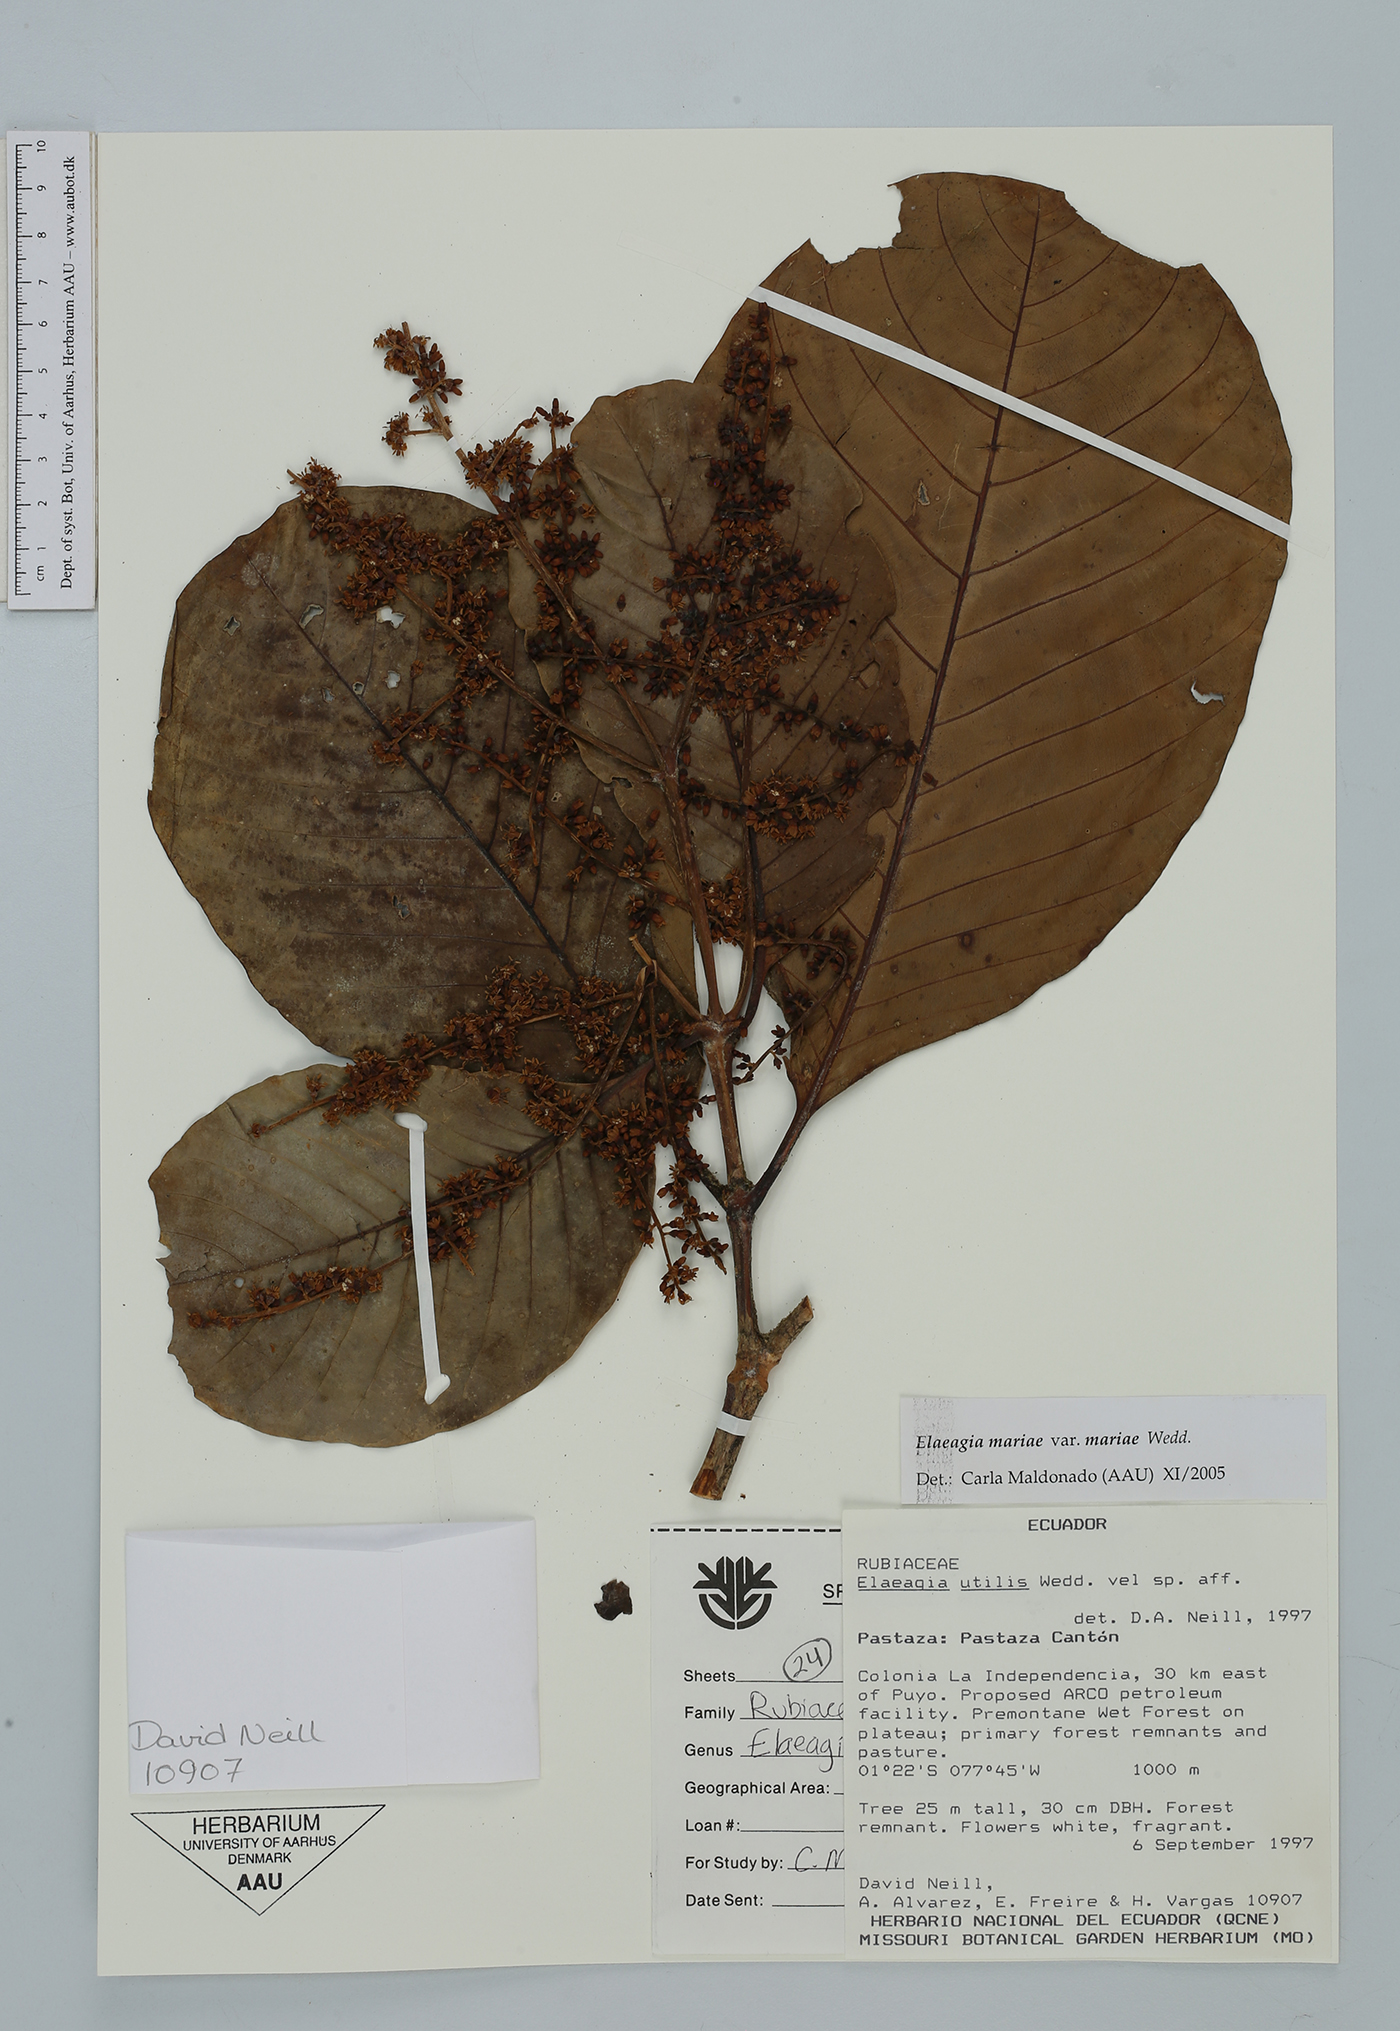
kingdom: Plantae
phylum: Tracheophyta
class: Magnoliopsida
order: Gentianales
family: Rubiaceae
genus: Elaeagia
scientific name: Elaeagia mariae
